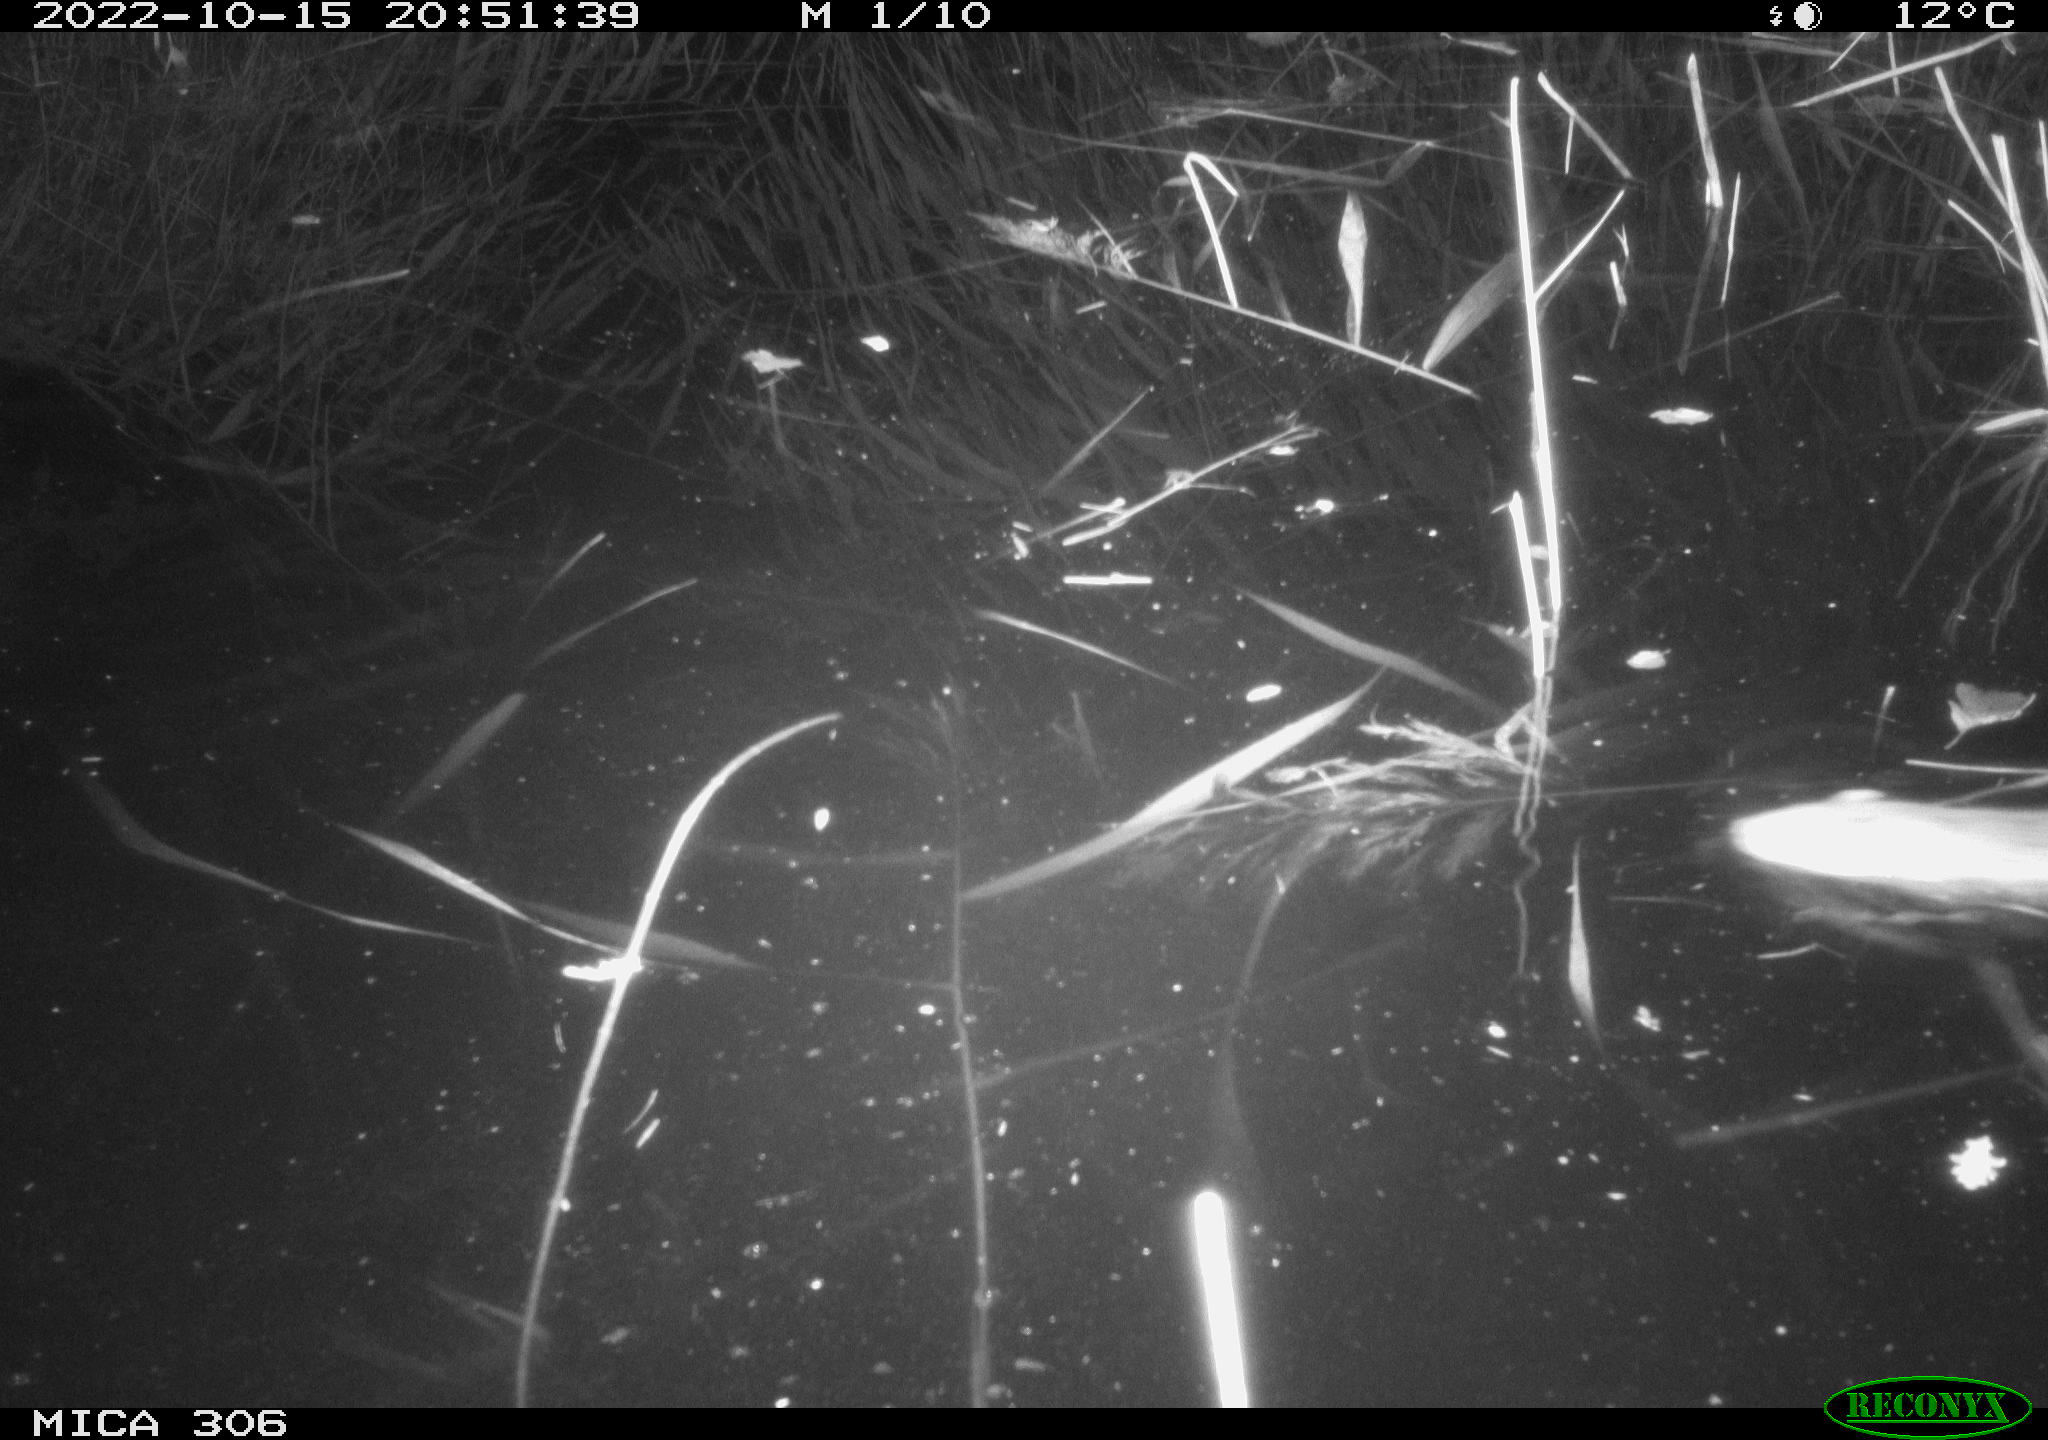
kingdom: Animalia
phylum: Chordata
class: Mammalia
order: Rodentia
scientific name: Rodentia
